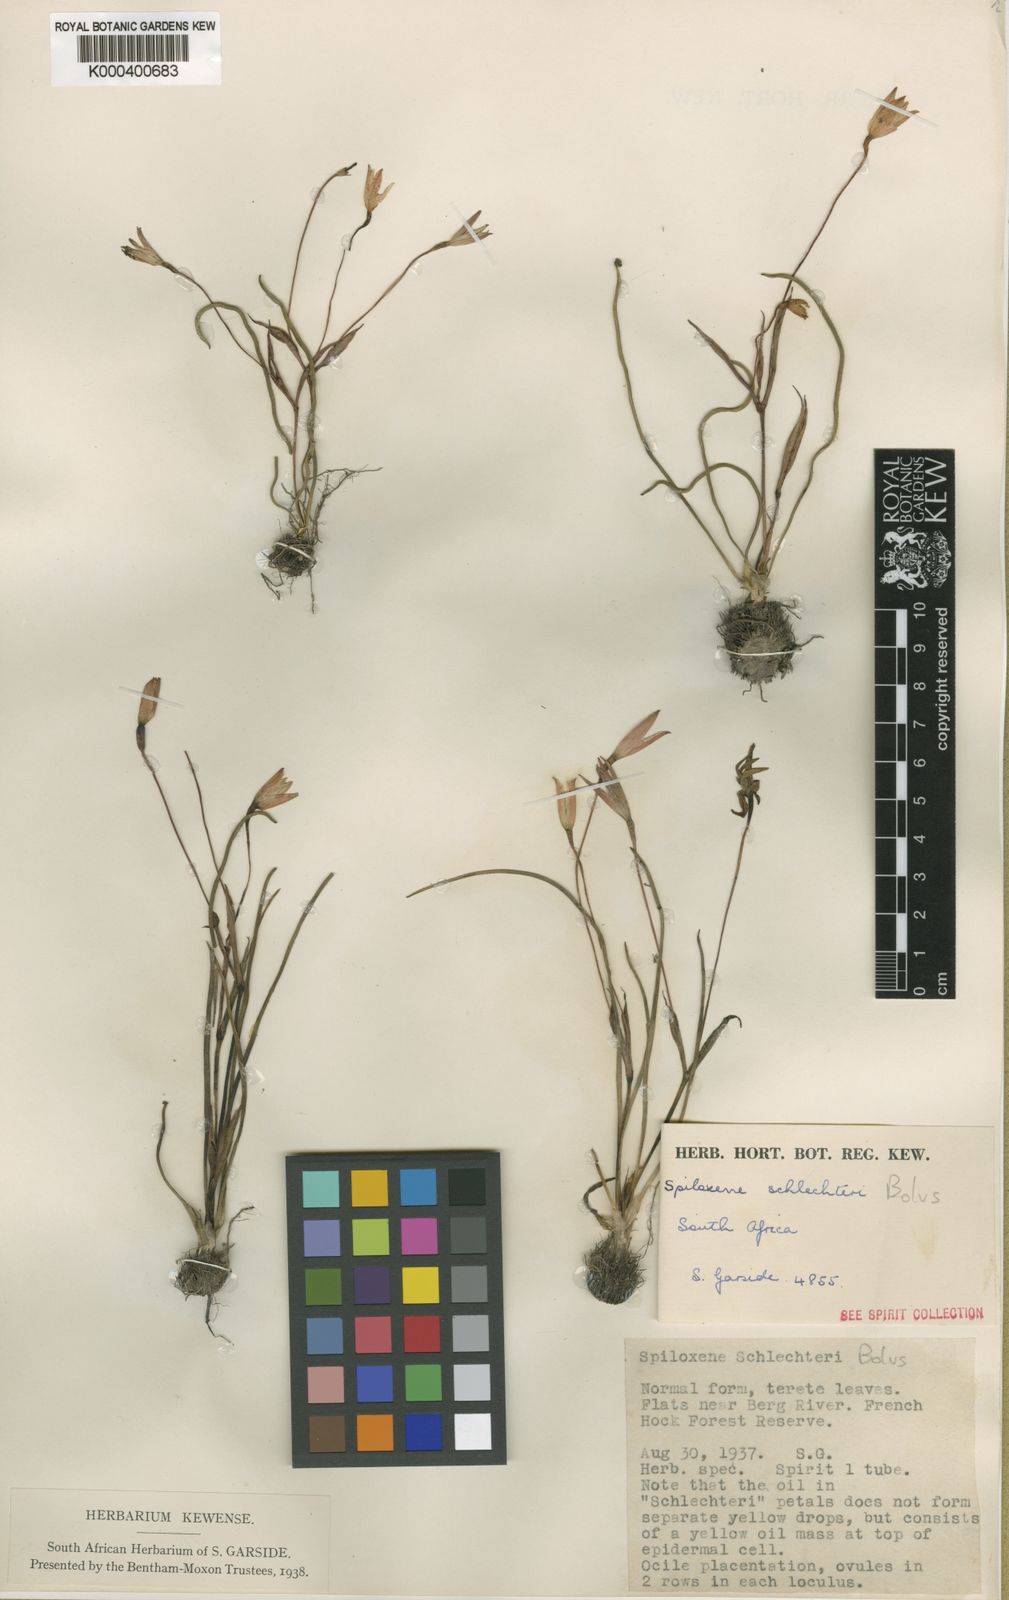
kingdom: Plantae
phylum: Tracheophyta
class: Liliopsida
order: Asparagales
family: Hypoxidaceae
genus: Pauridia
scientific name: Pauridia affinis
